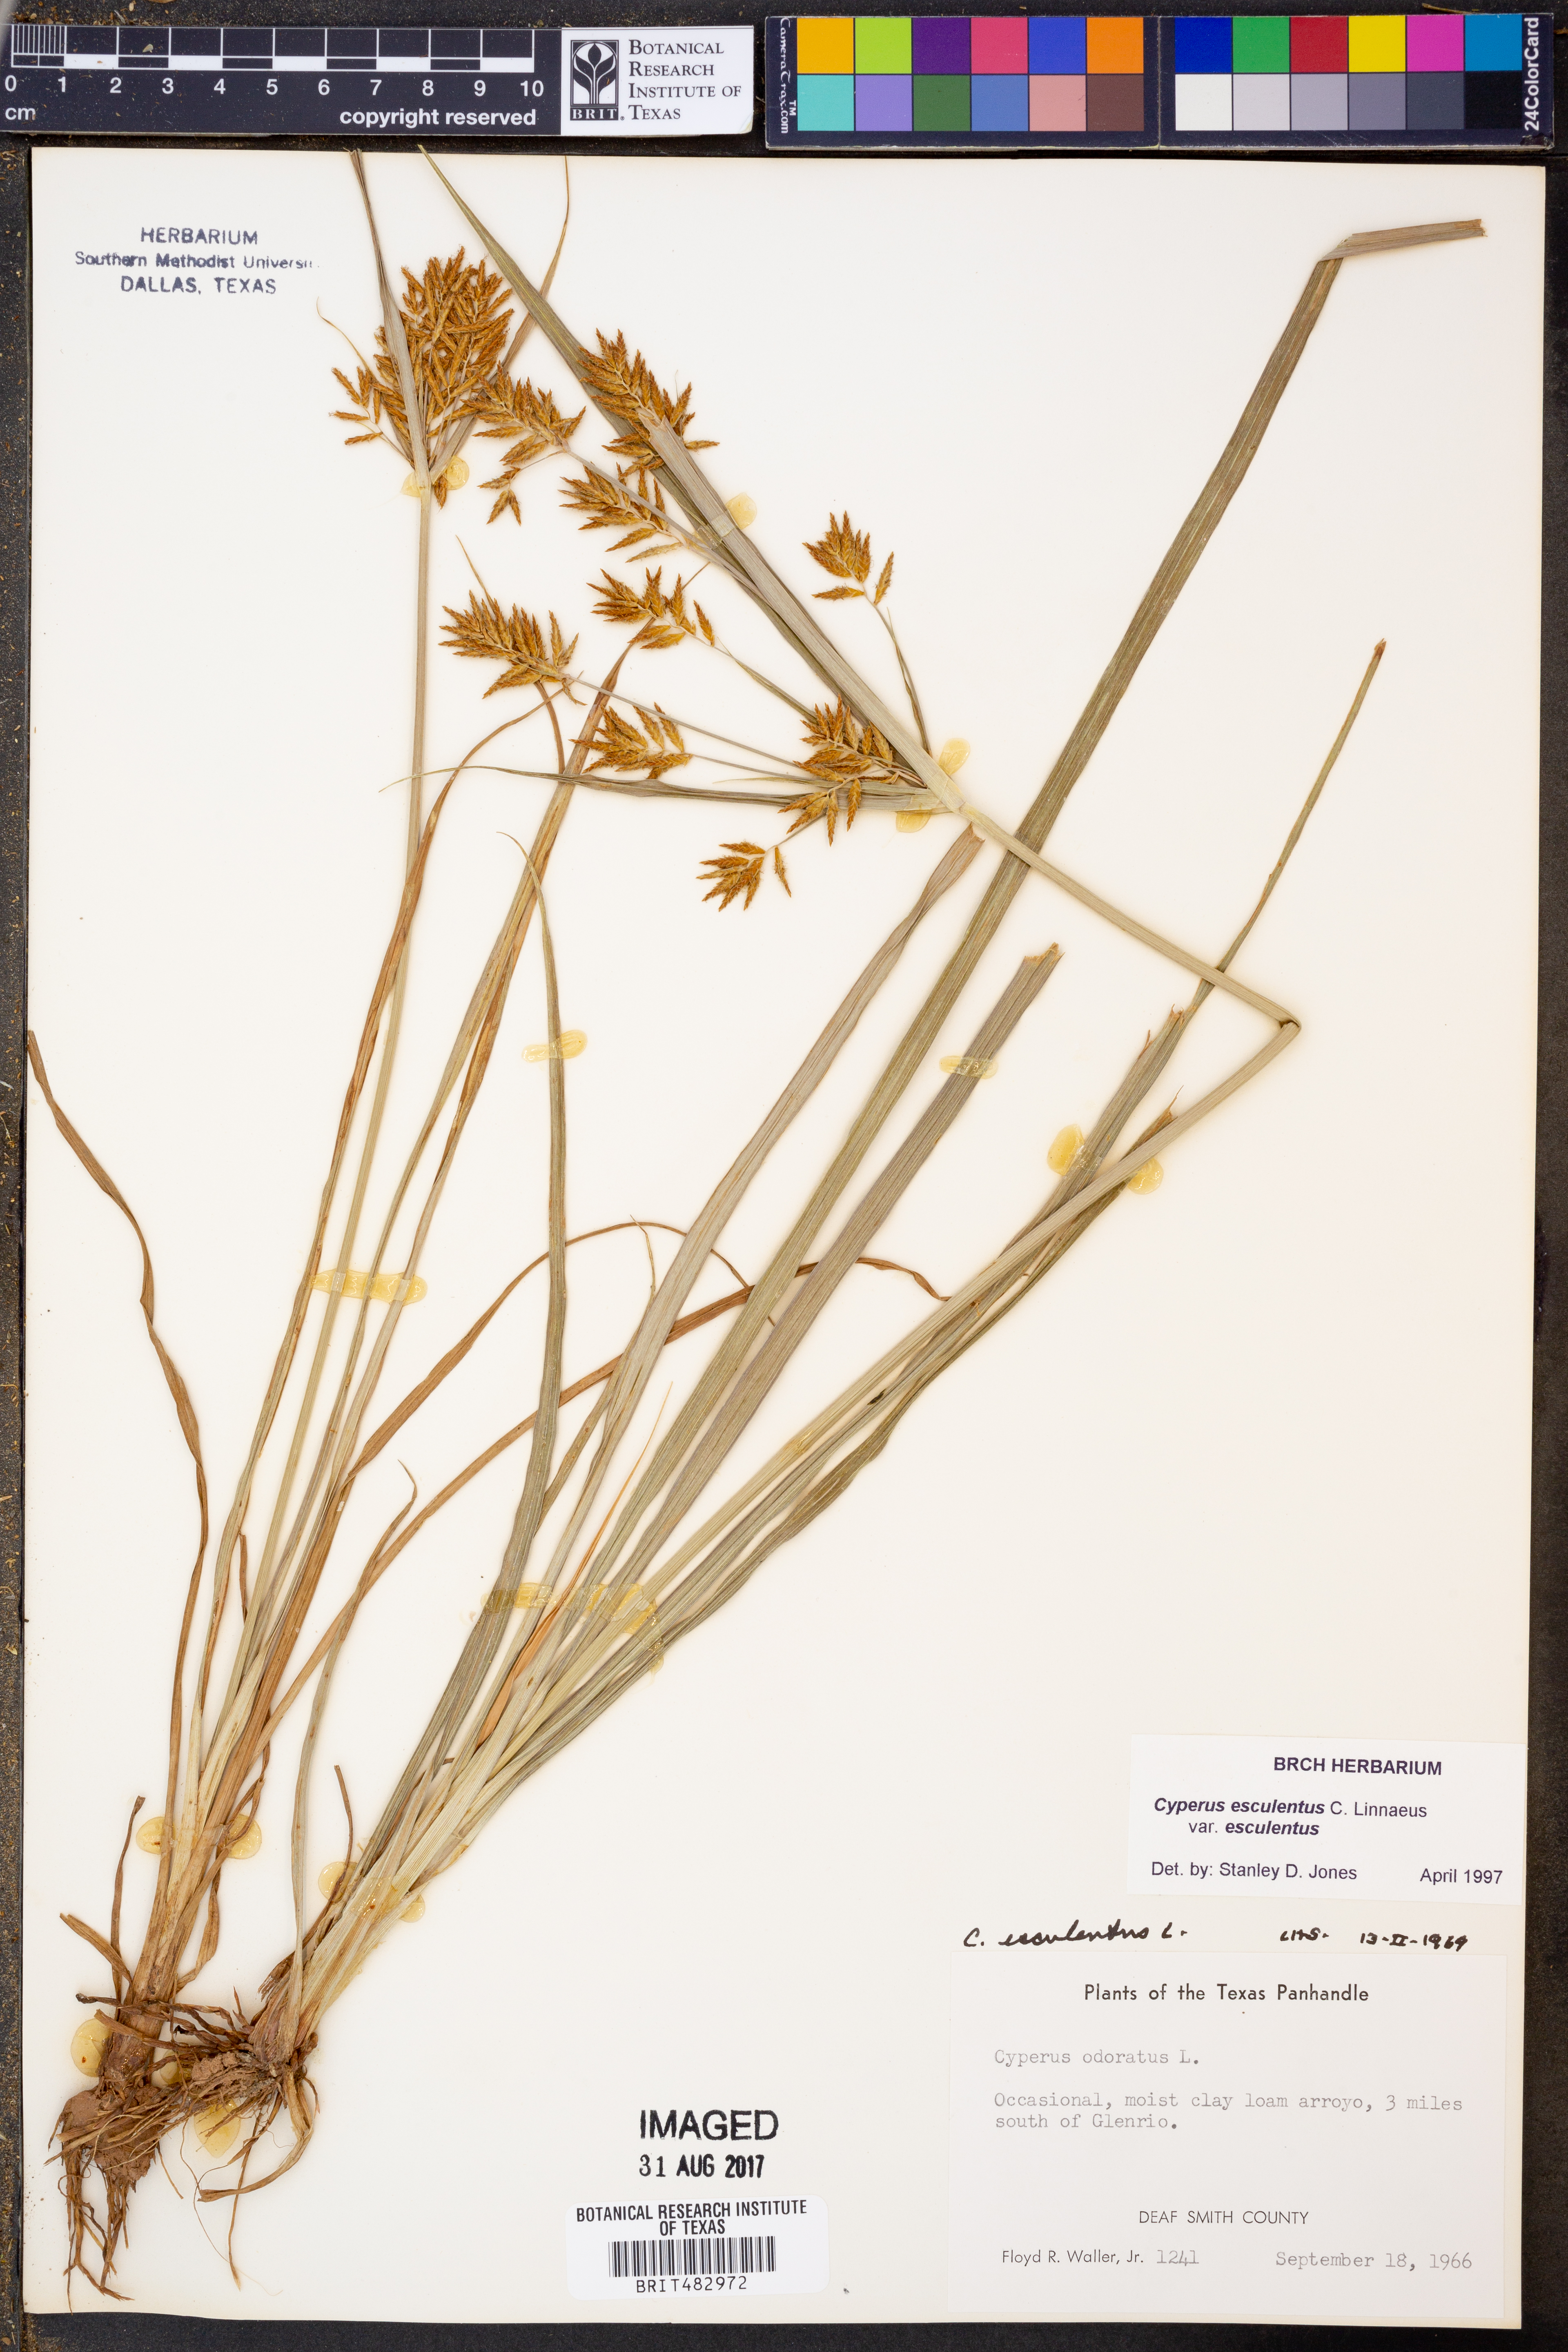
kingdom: Plantae
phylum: Tracheophyta
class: Liliopsida
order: Poales
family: Cyperaceae
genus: Cyperus
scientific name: Cyperus esculentus
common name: Yellow nutsedge
